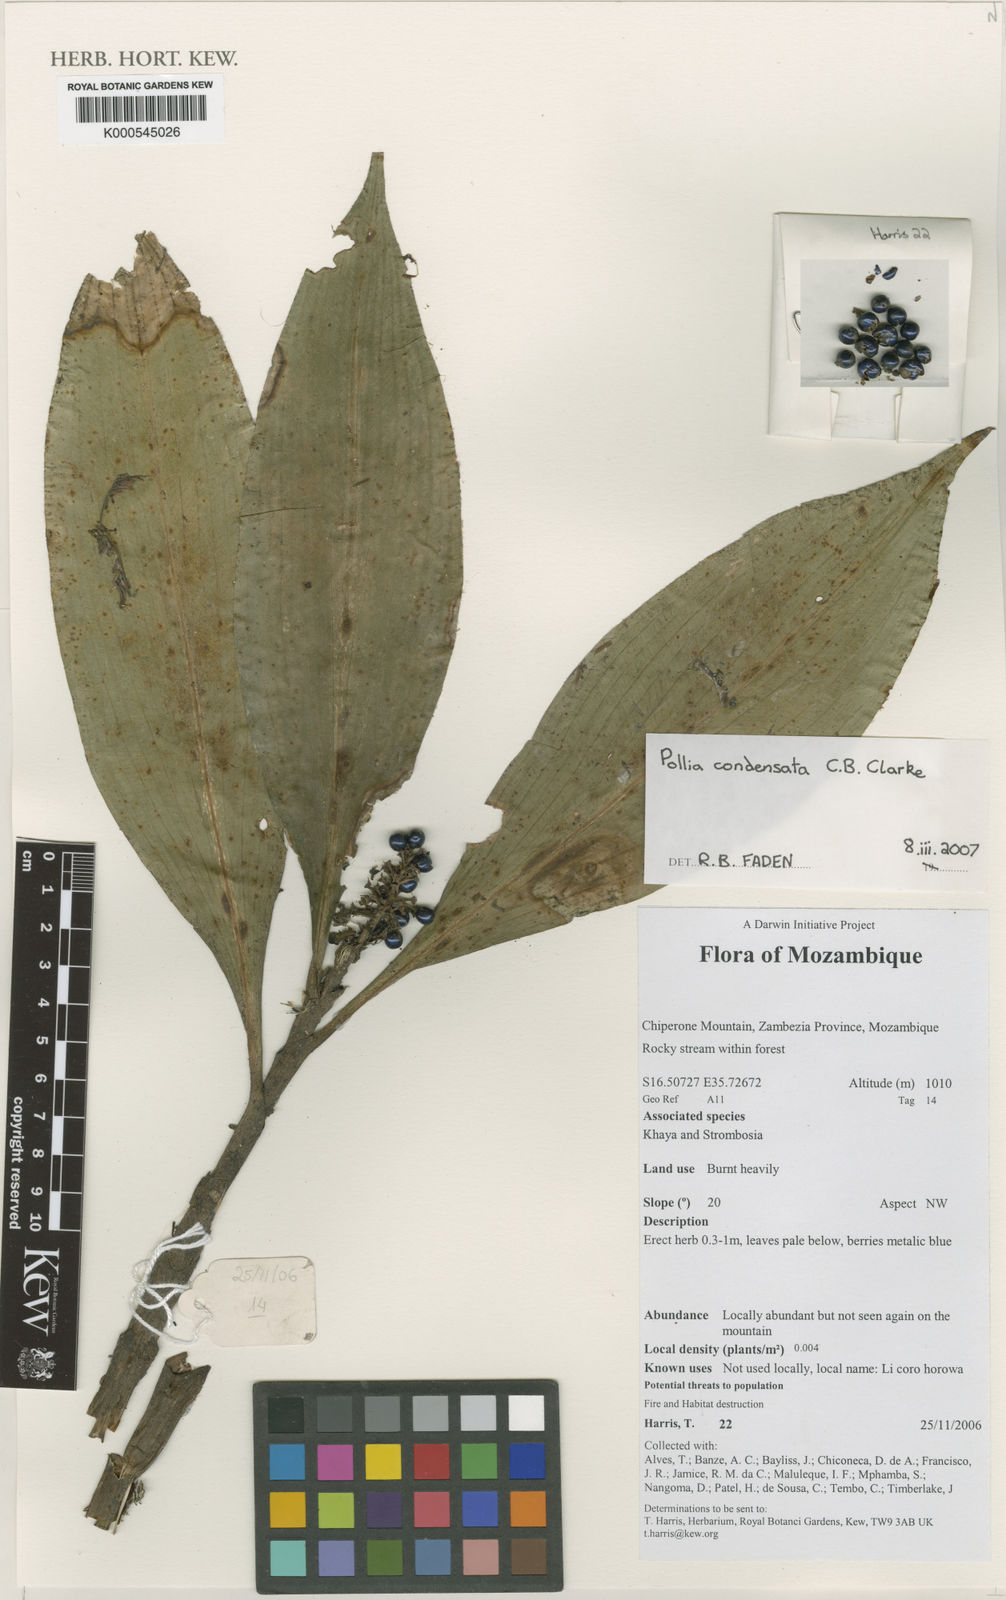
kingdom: Plantae
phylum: Tracheophyta
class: Liliopsida
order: Commelinales
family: Commelinaceae
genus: Pollia
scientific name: Pollia condensata
